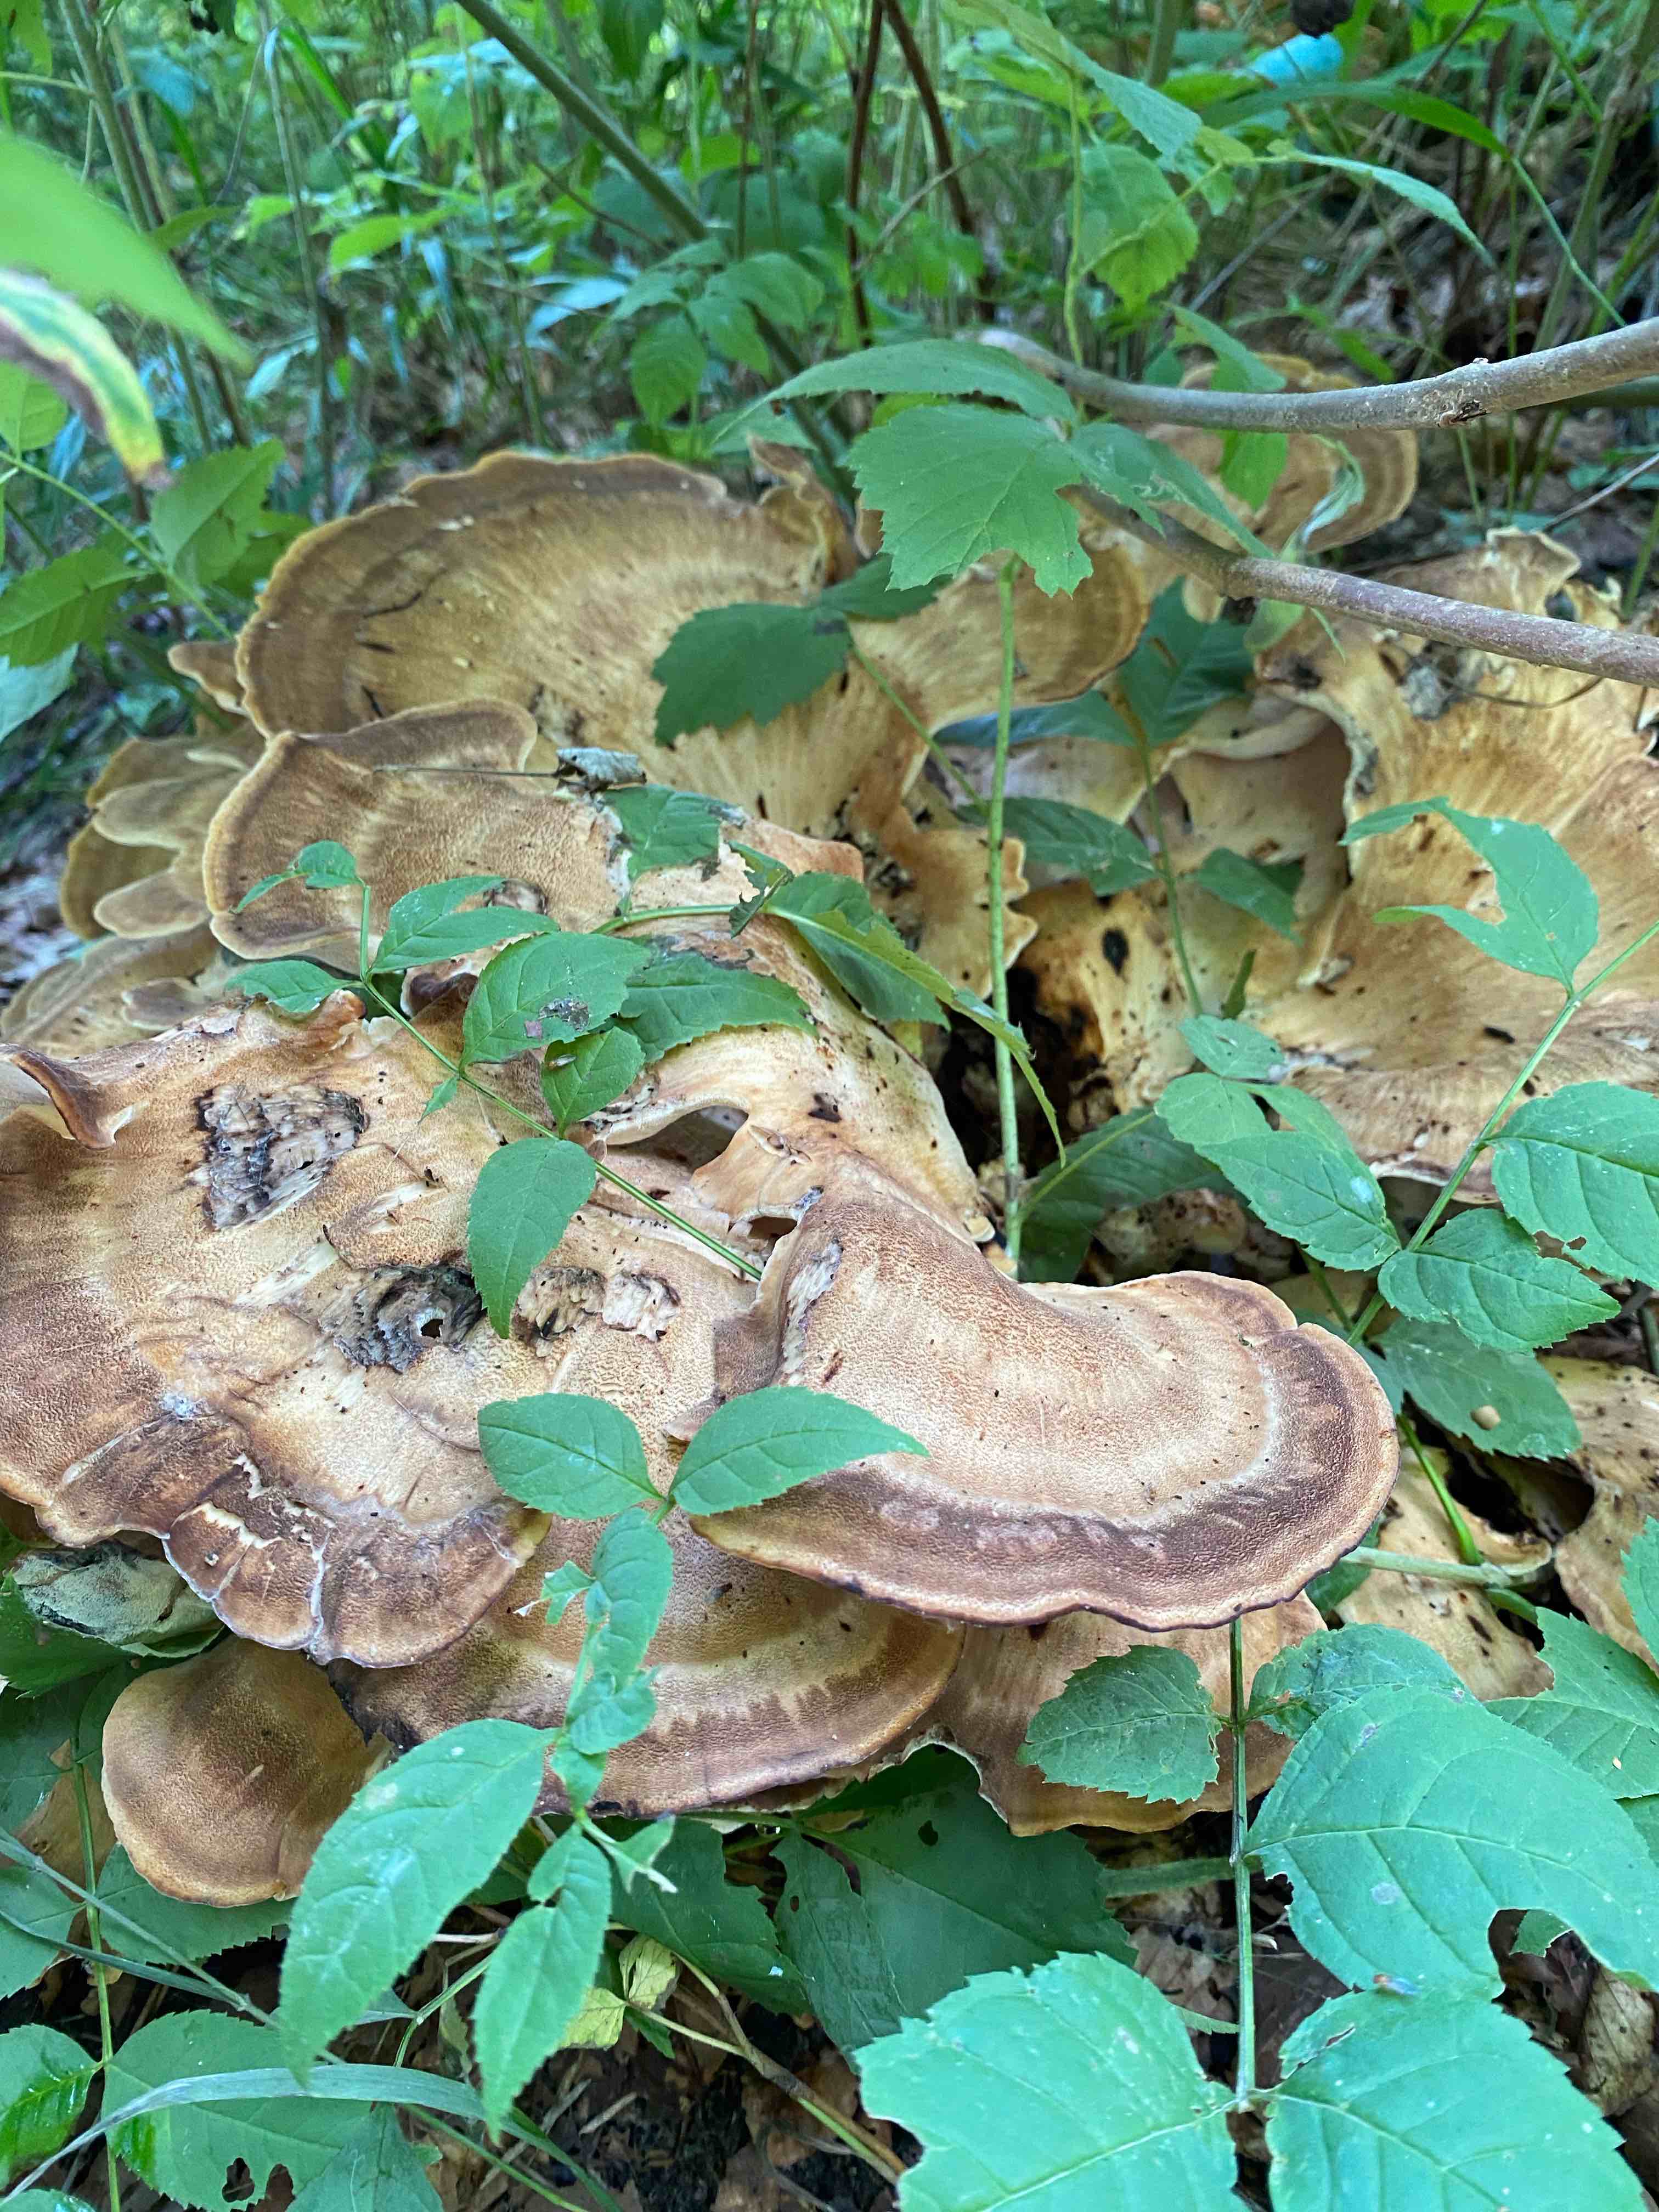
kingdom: Fungi
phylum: Basidiomycota
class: Agaricomycetes
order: Polyporales
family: Meripilaceae
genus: Meripilus
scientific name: Meripilus giganteus
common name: kæmpeporesvamp
